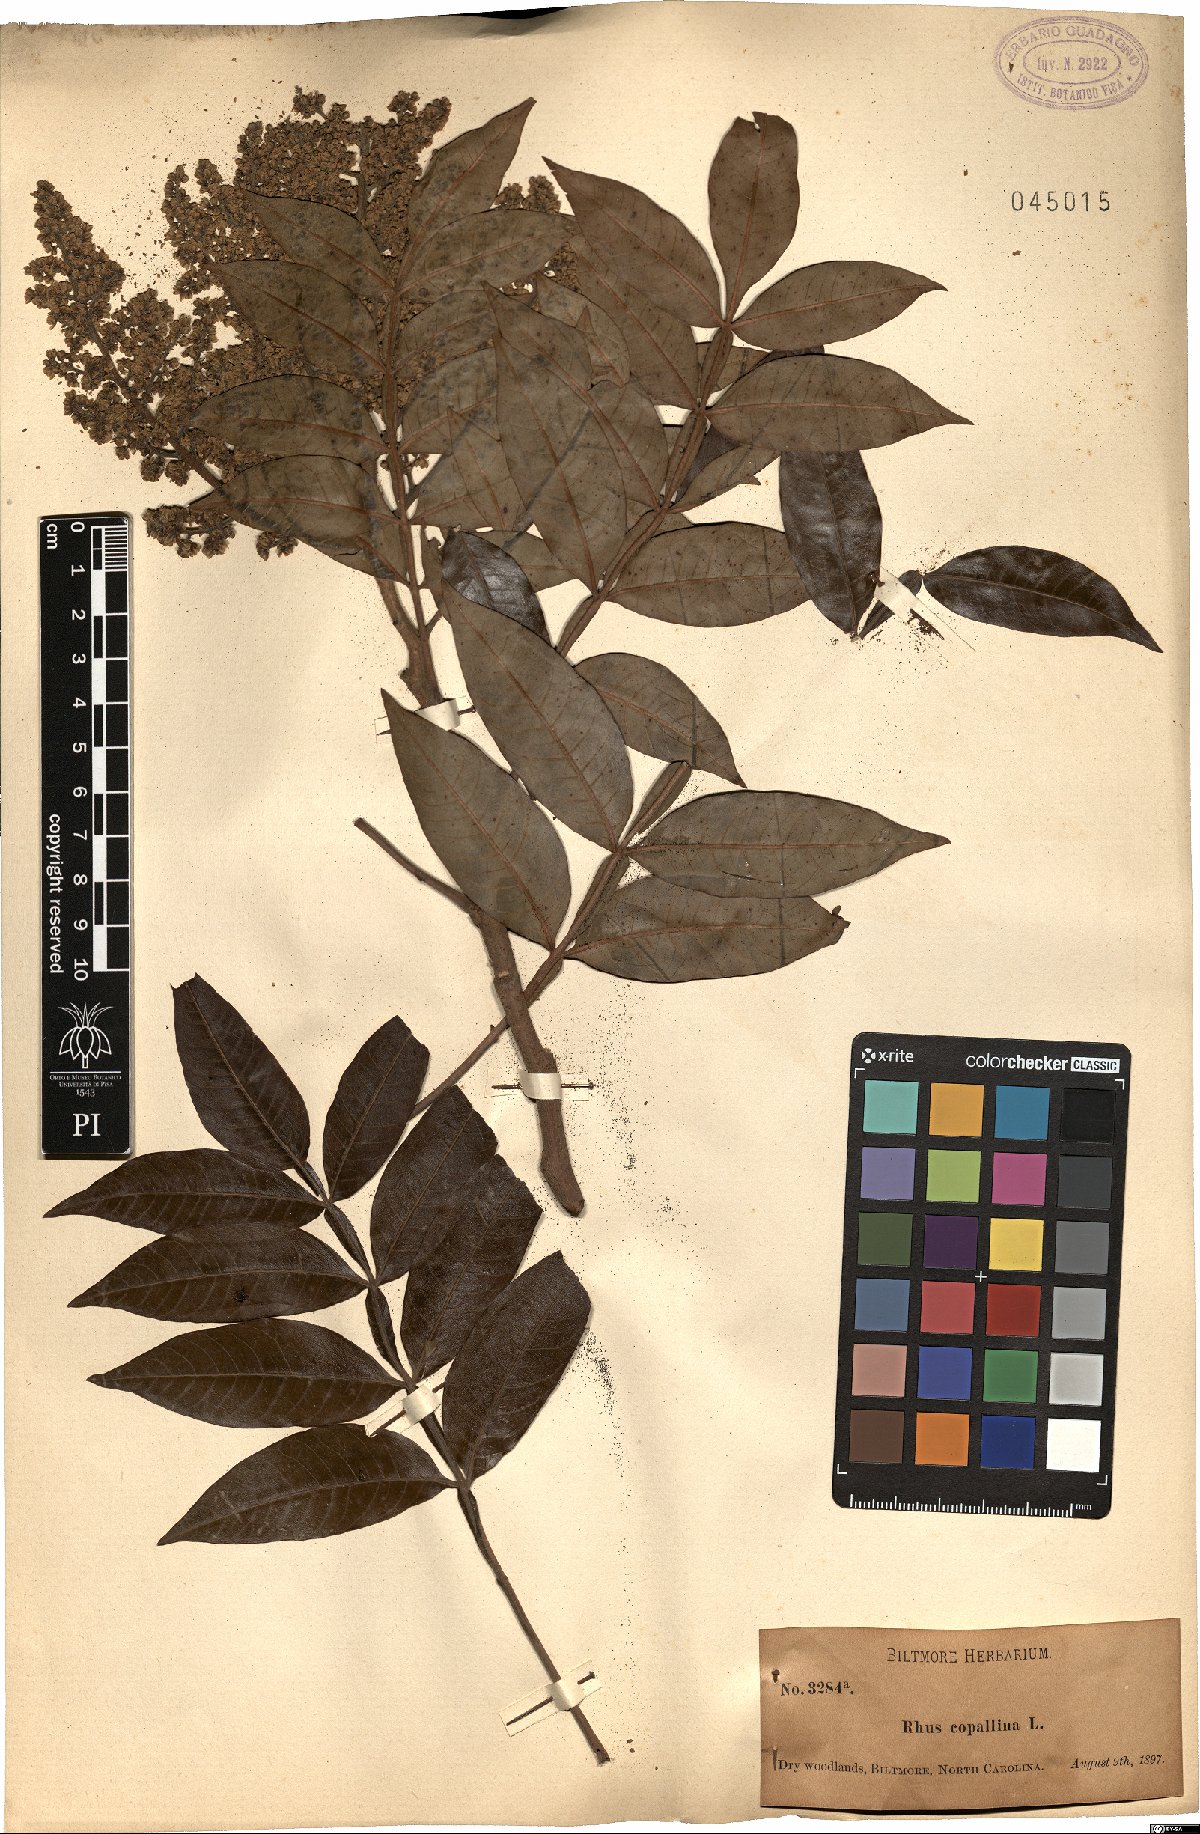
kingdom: Plantae
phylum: Tracheophyta
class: Magnoliopsida
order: Sapindales
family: Anacardiaceae
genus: Rhus
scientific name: Rhus copallina
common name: Shining sumac
